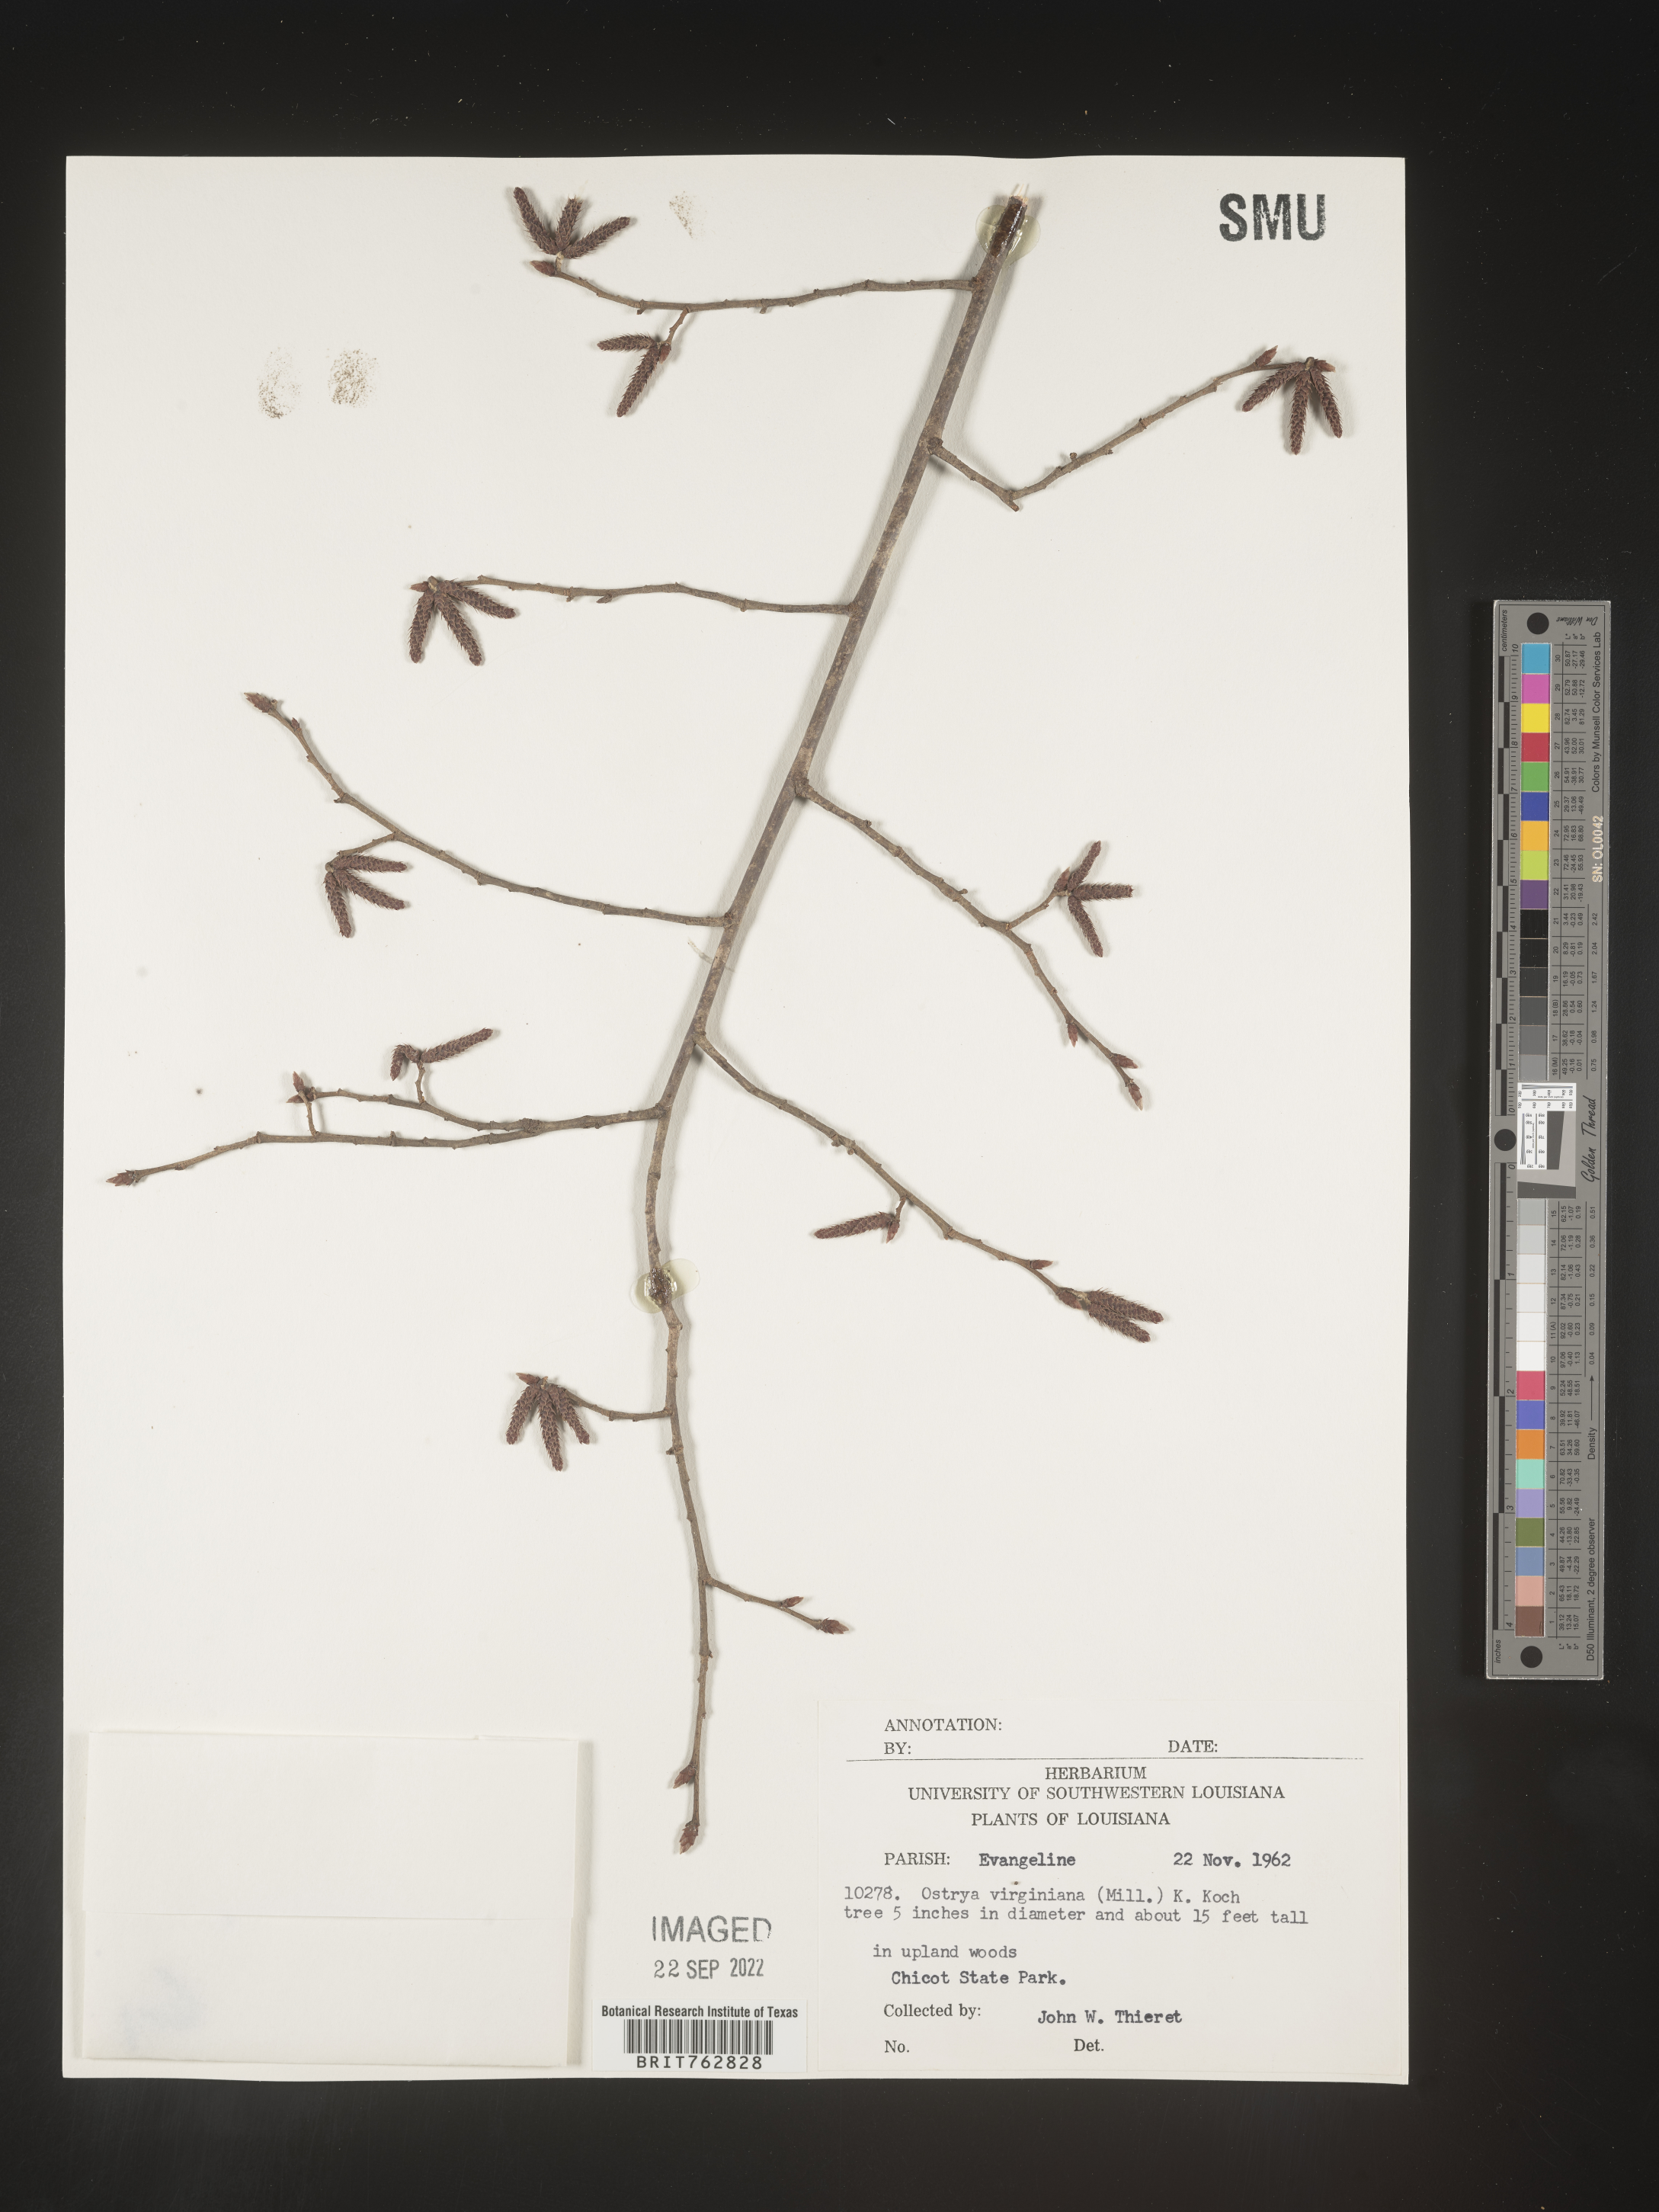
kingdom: Plantae
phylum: Tracheophyta
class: Magnoliopsida
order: Fagales
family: Betulaceae
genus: Ostrya
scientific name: Ostrya virginiana
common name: Ironwood
